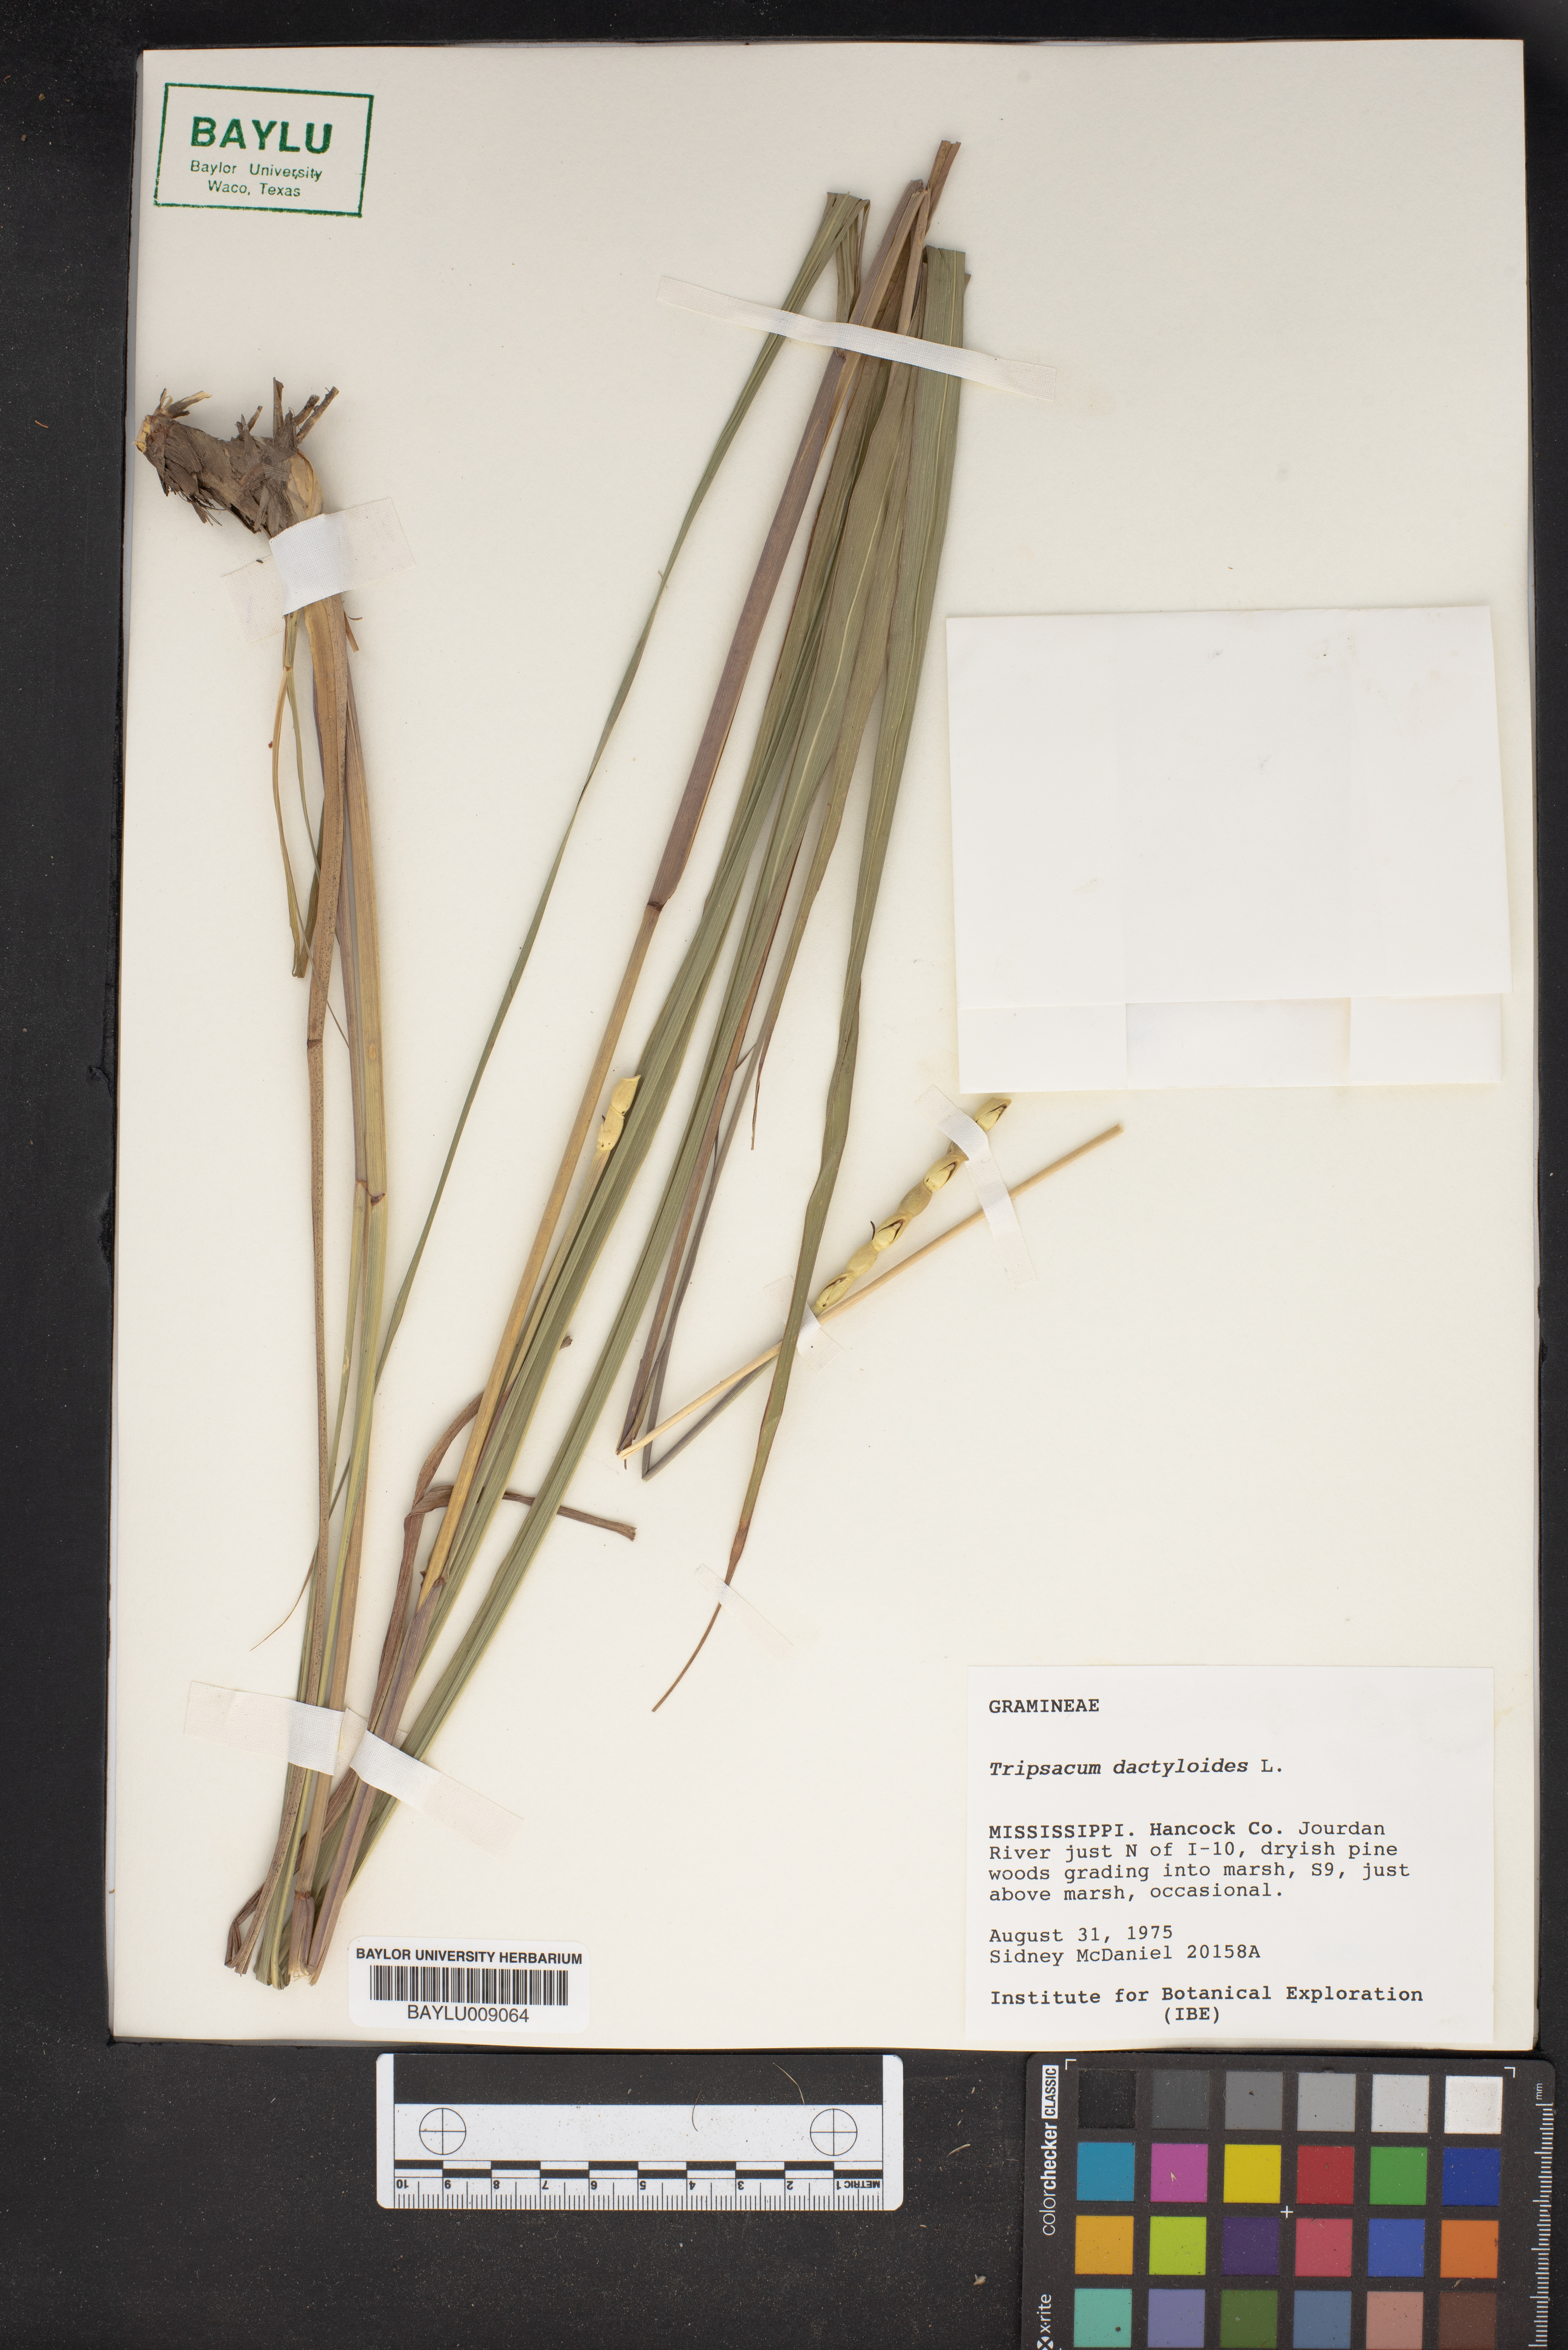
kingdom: Plantae
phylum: Tracheophyta
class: Liliopsida
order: Poales
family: Poaceae
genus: Tripsacum
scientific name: Tripsacum dactyloides
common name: Buffalo-grass
